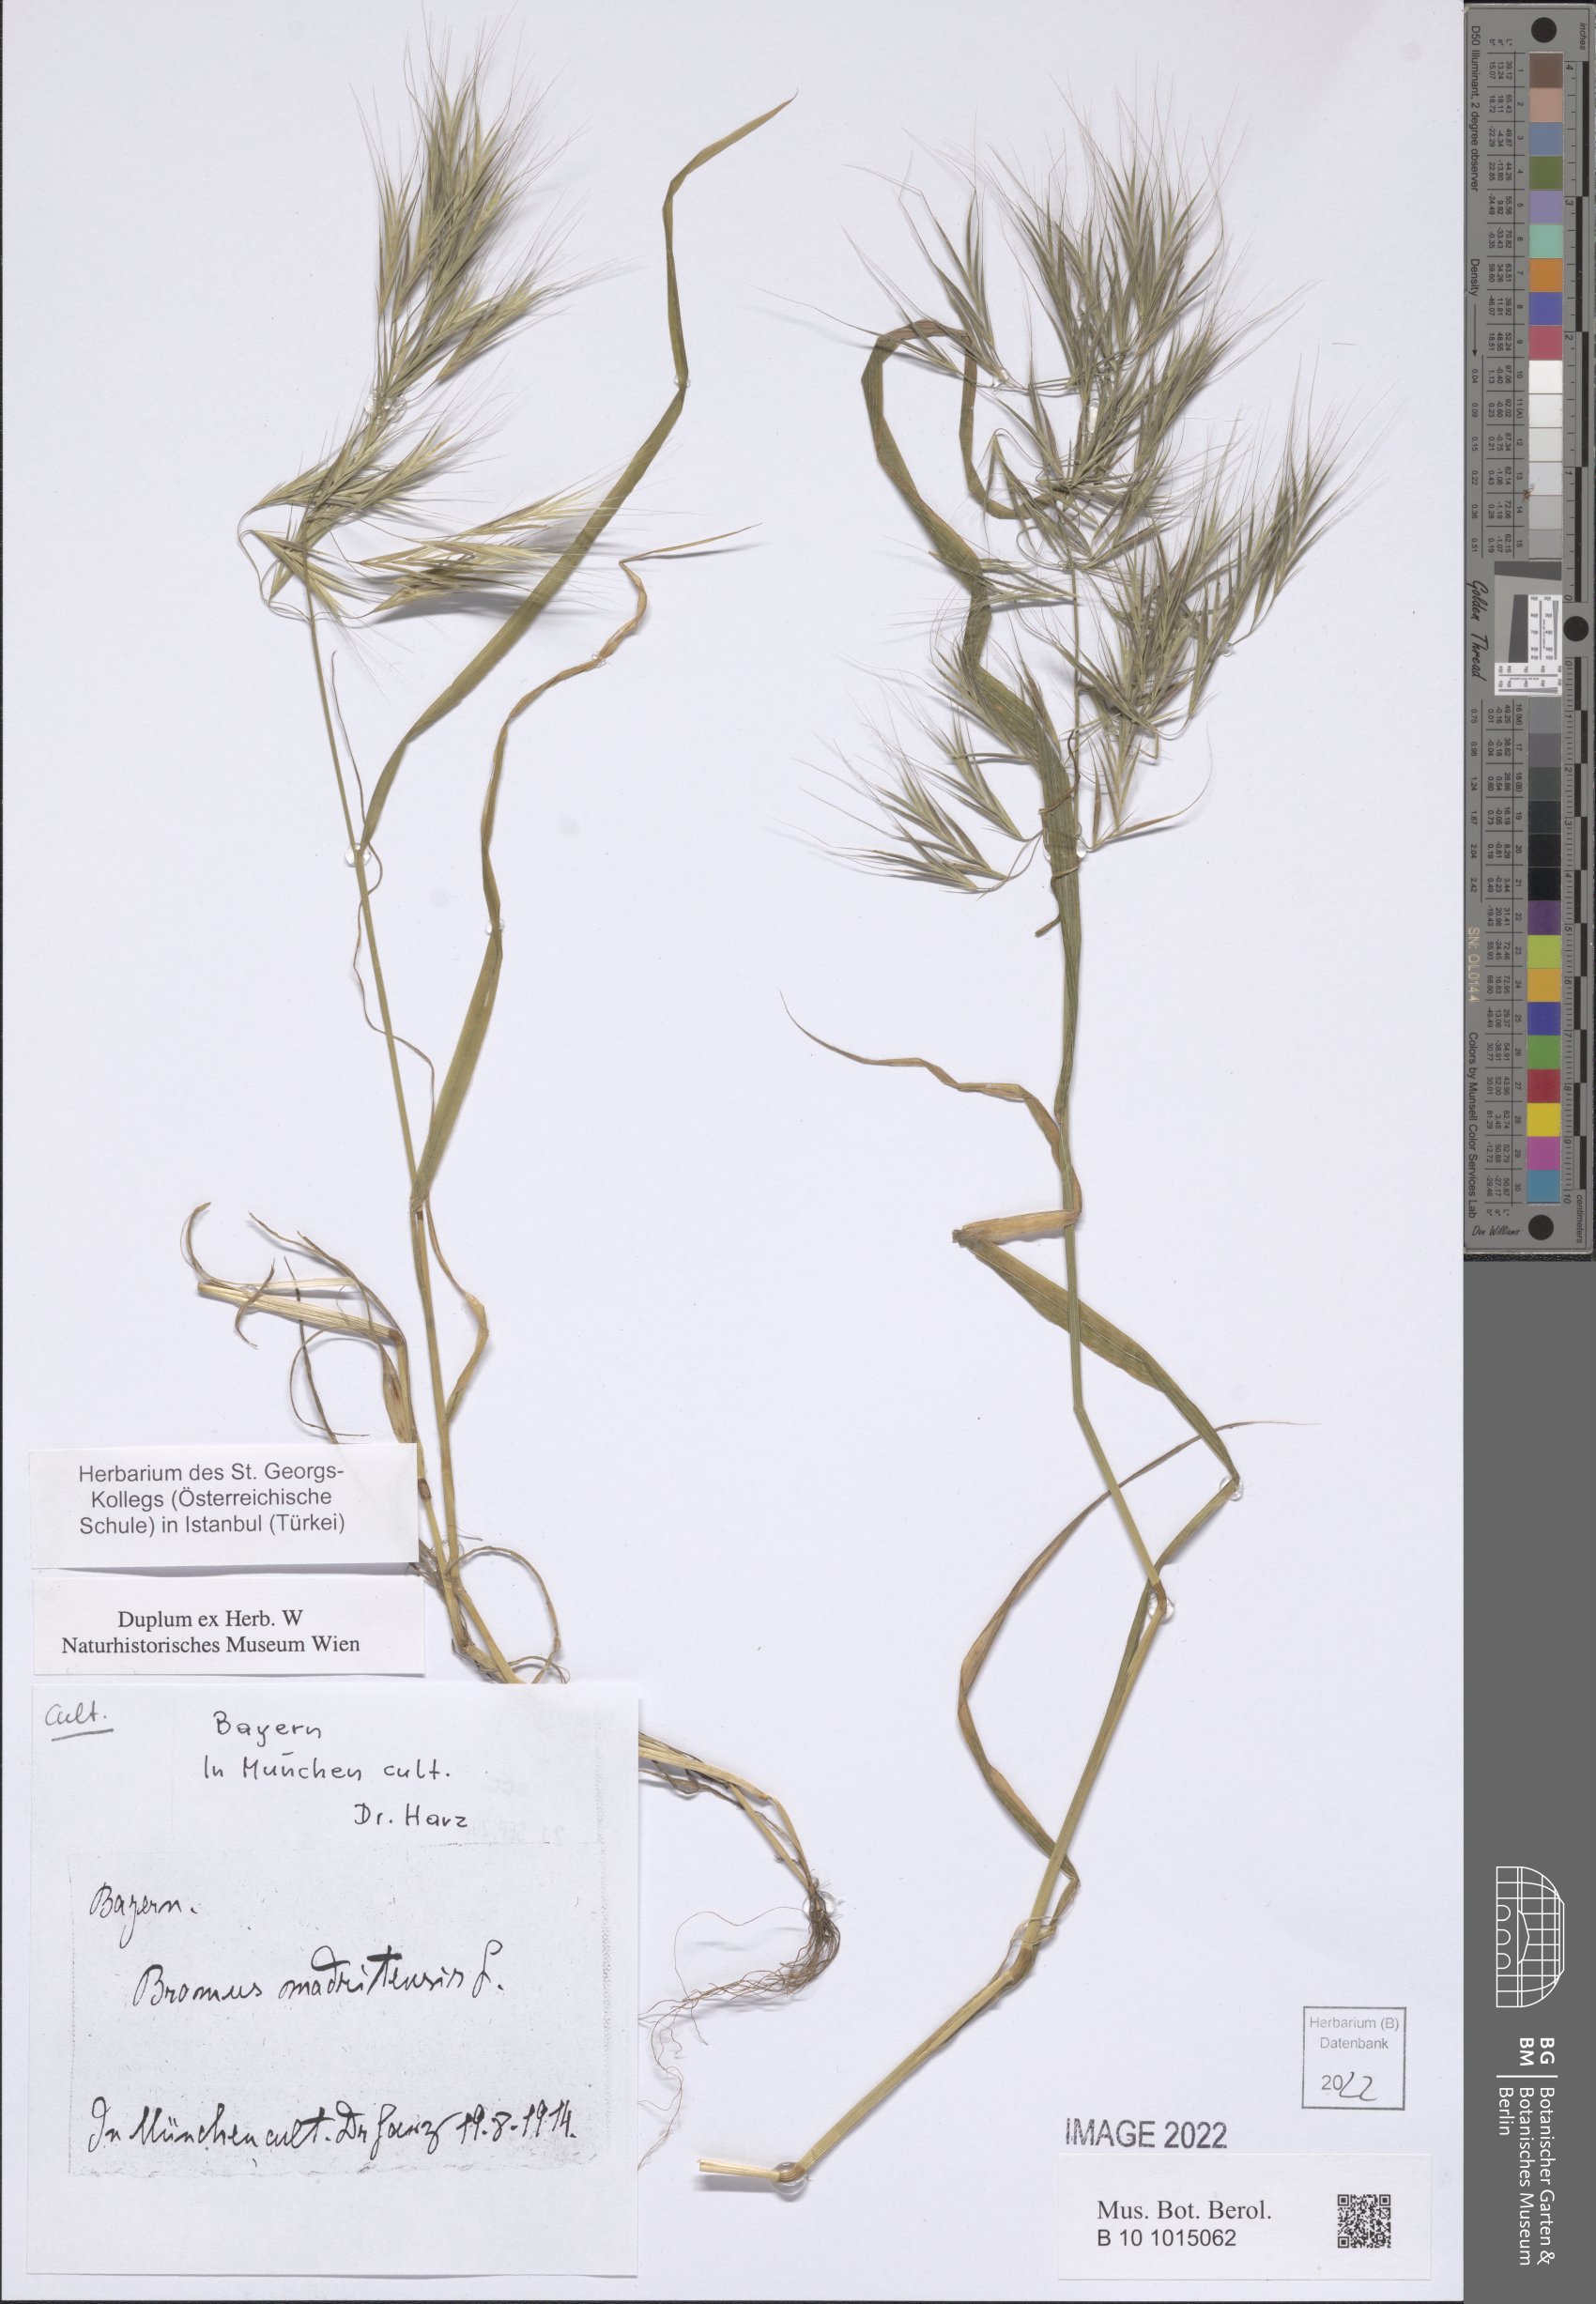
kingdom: Plantae
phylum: Tracheophyta
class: Liliopsida
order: Poales
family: Poaceae
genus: Bromus
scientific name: Bromus madritensis
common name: Compact brome
